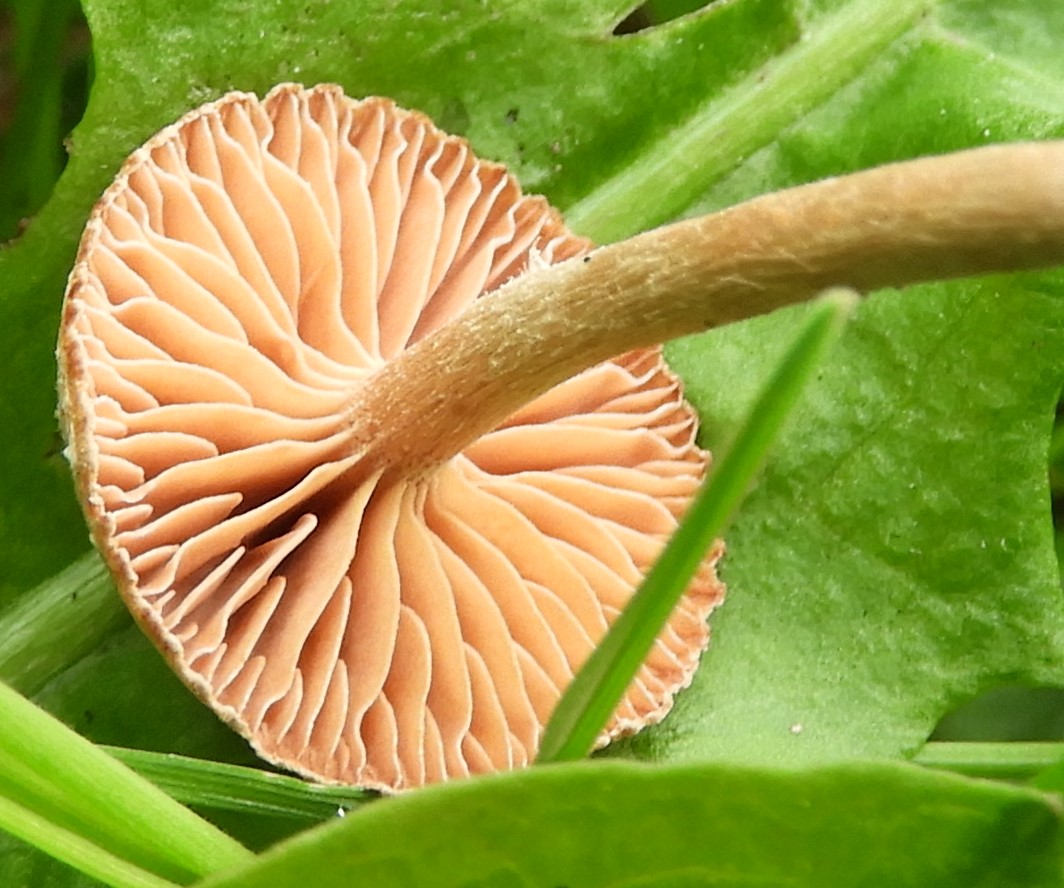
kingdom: Fungi
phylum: Basidiomycota
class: Agaricomycetes
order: Agaricales
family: Tubariaceae
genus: Tubaria
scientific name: Tubaria conspersa
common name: bleg fnughat
